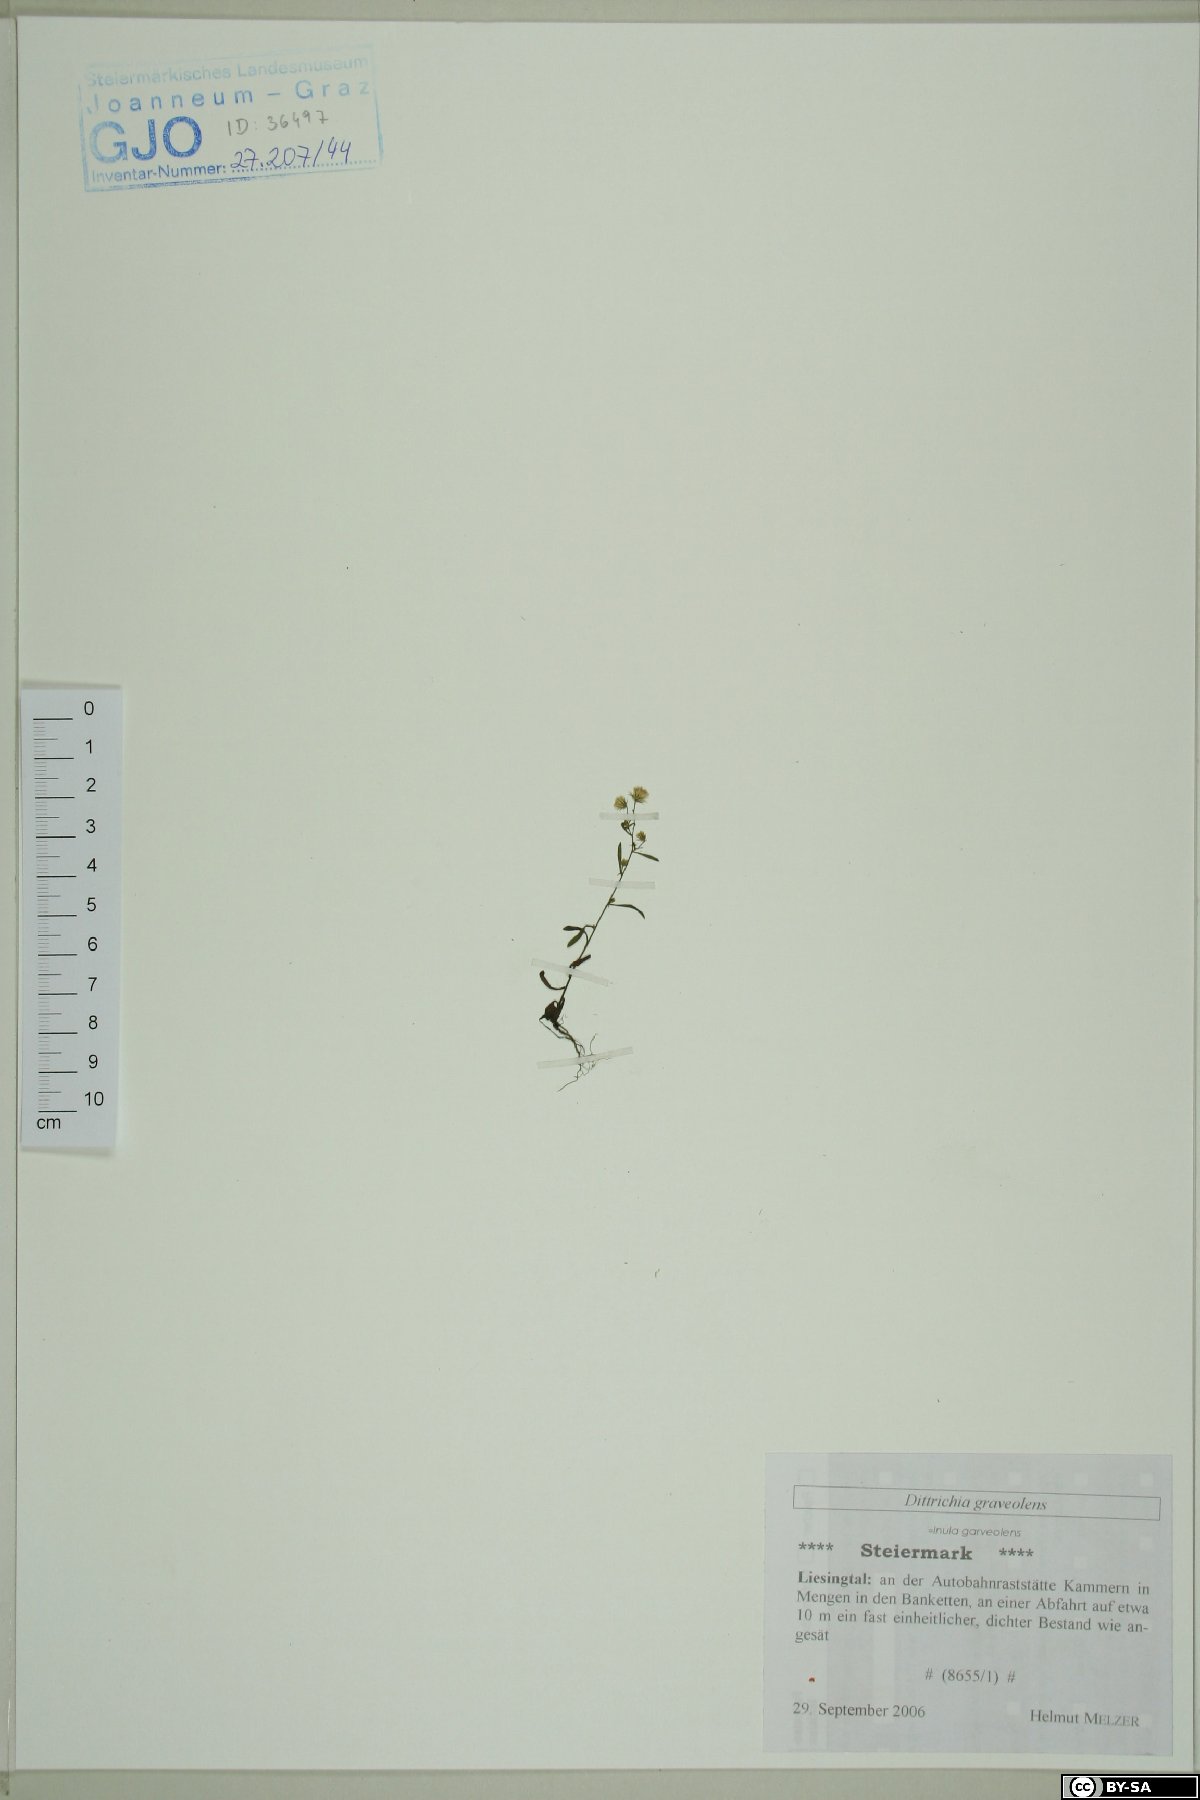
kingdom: Plantae
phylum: Tracheophyta
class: Magnoliopsida
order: Asterales
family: Asteraceae
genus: Dittrichia
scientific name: Dittrichia graveolens
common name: Stinking fleabane
